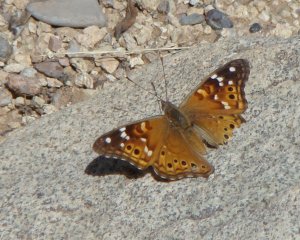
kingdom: Animalia
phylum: Arthropoda
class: Insecta
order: Lepidoptera
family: Nymphalidae
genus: Asterocampa
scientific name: Asterocampa leilia
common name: Empress Leilia
